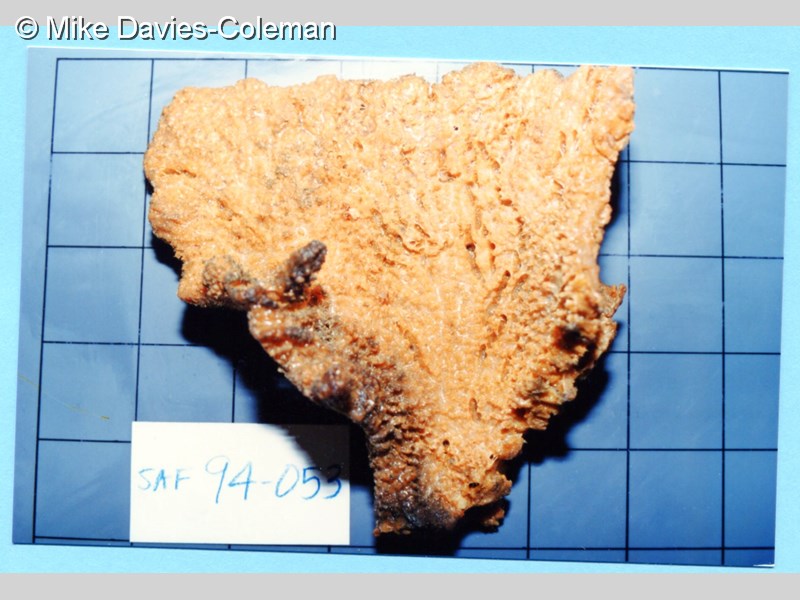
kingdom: Animalia
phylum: Porifera
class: Demospongiae
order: Axinellida
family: Axinellidae
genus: Axinella
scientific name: Axinella
